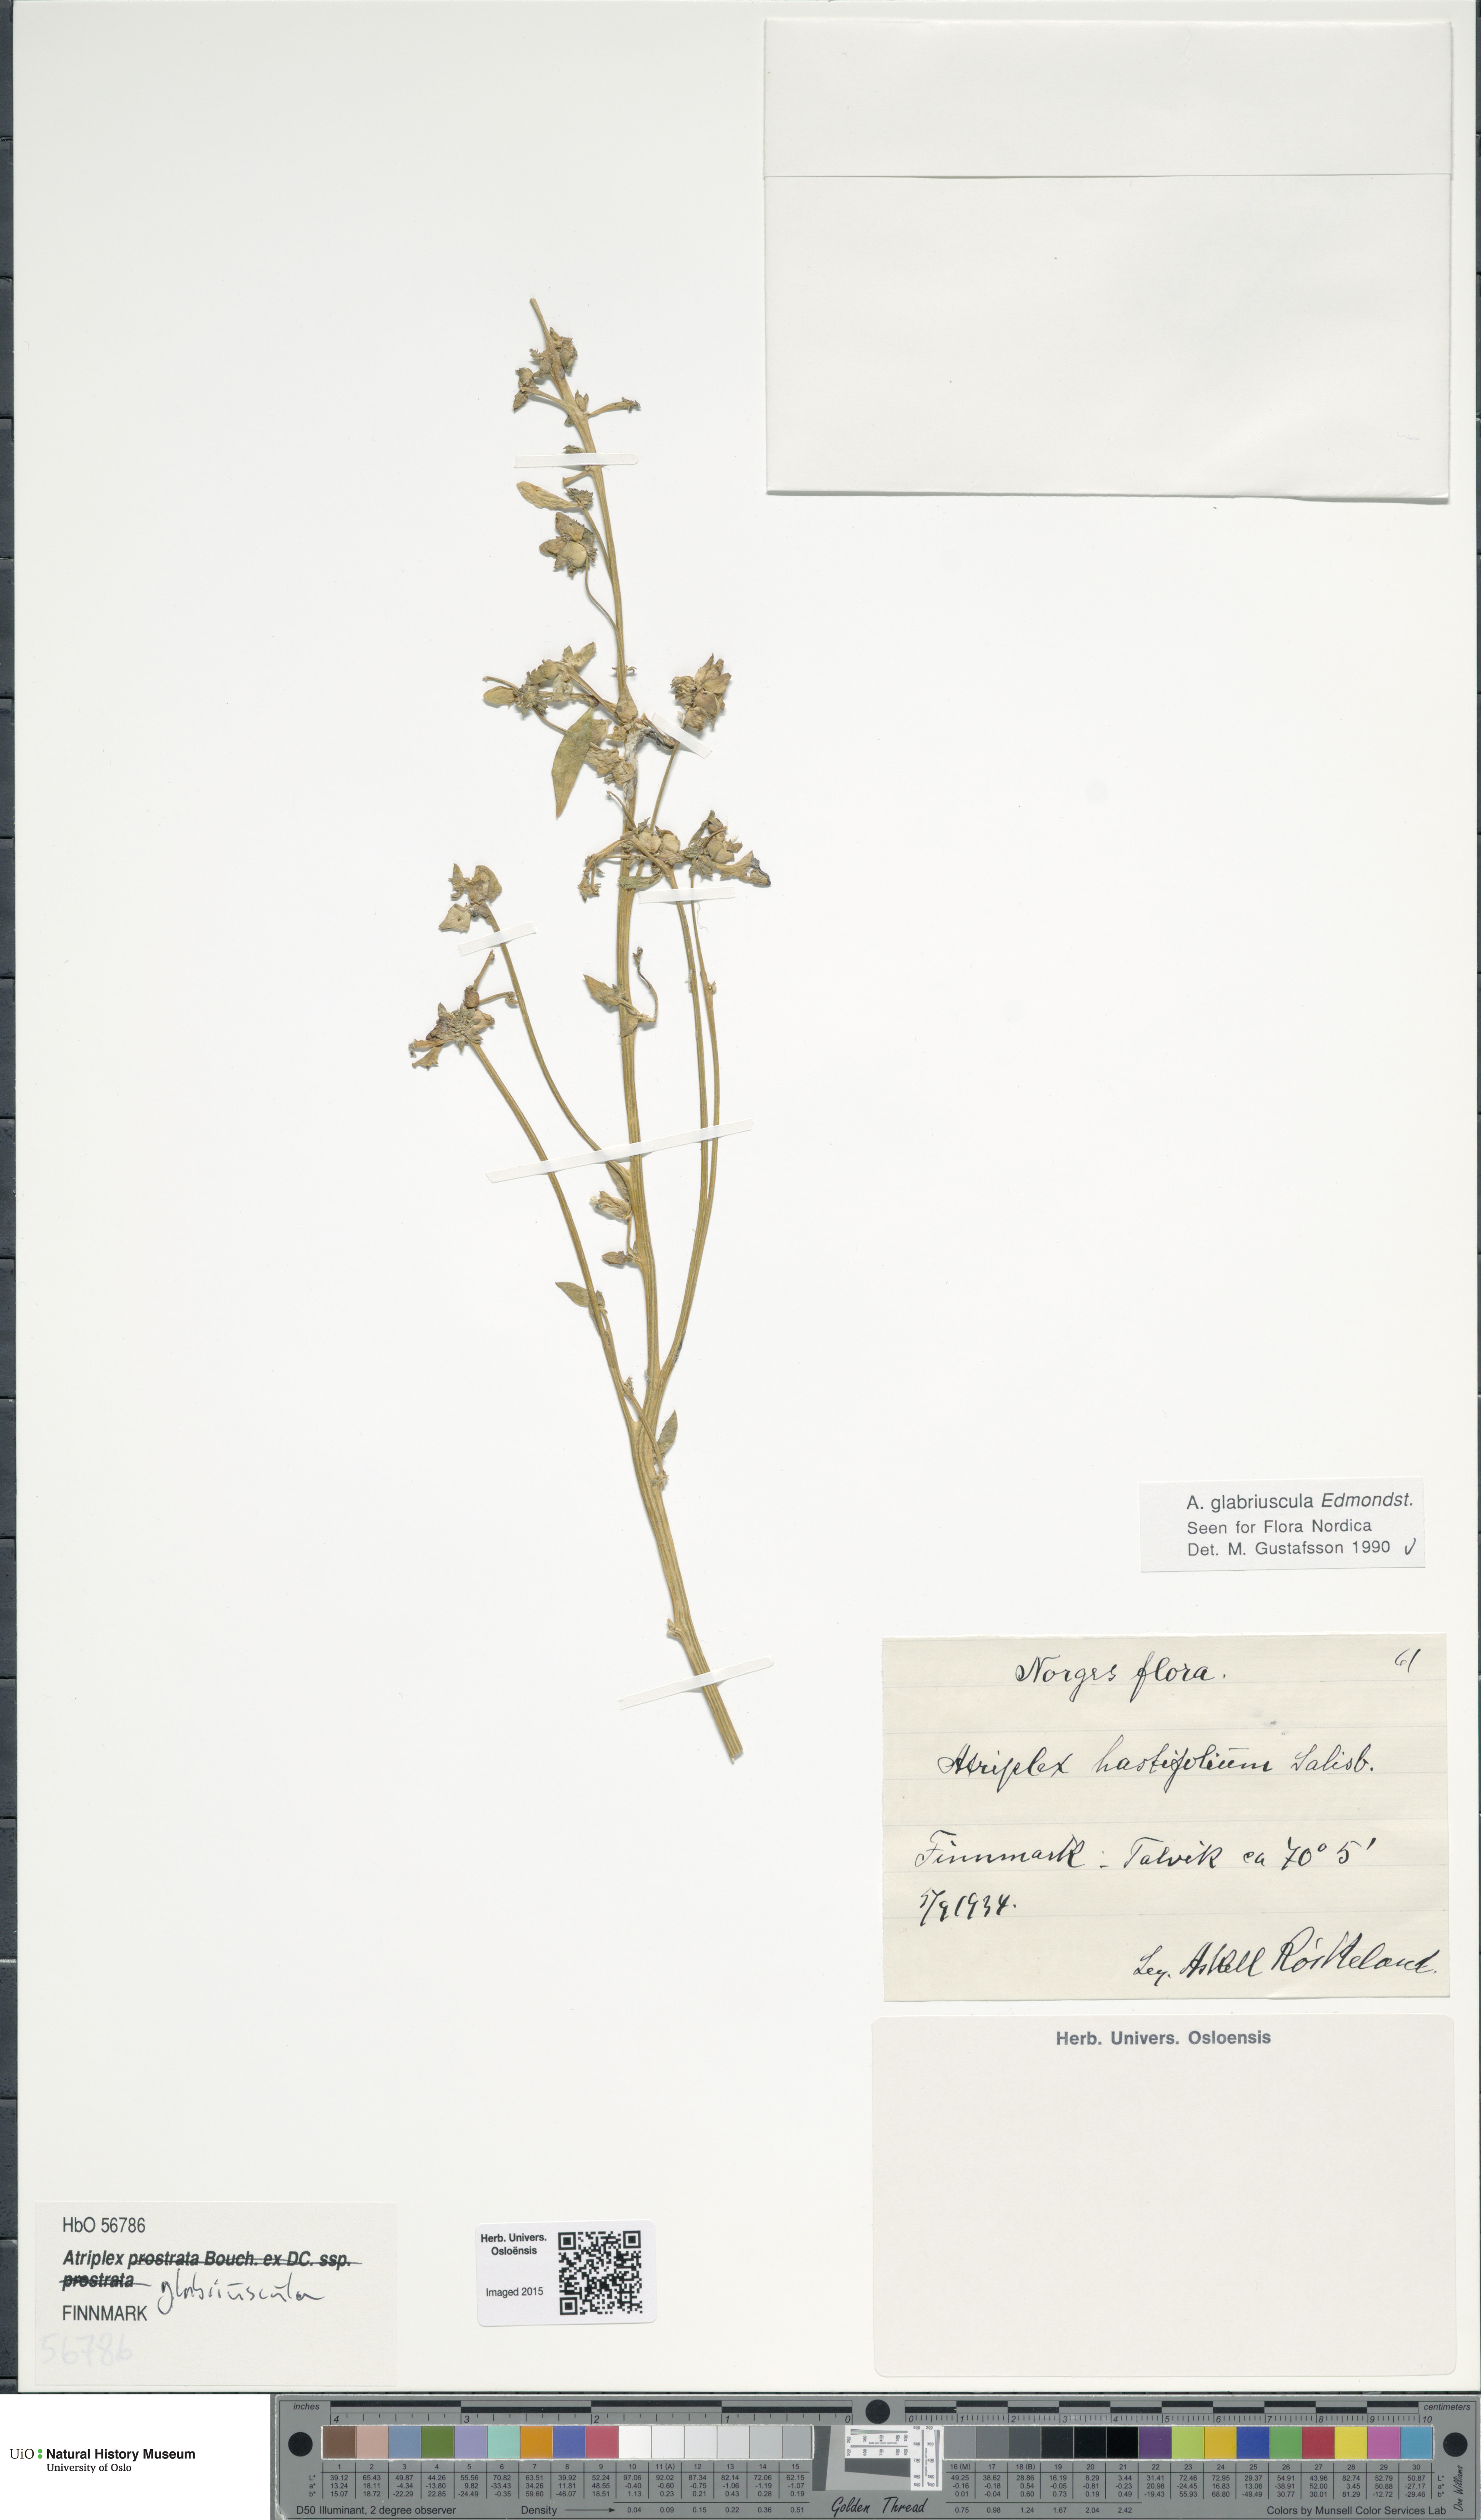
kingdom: Plantae
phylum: Tracheophyta
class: Magnoliopsida
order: Caryophyllales
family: Amaranthaceae
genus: Atriplex
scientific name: Atriplex glabriuscula
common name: Babington's orache
